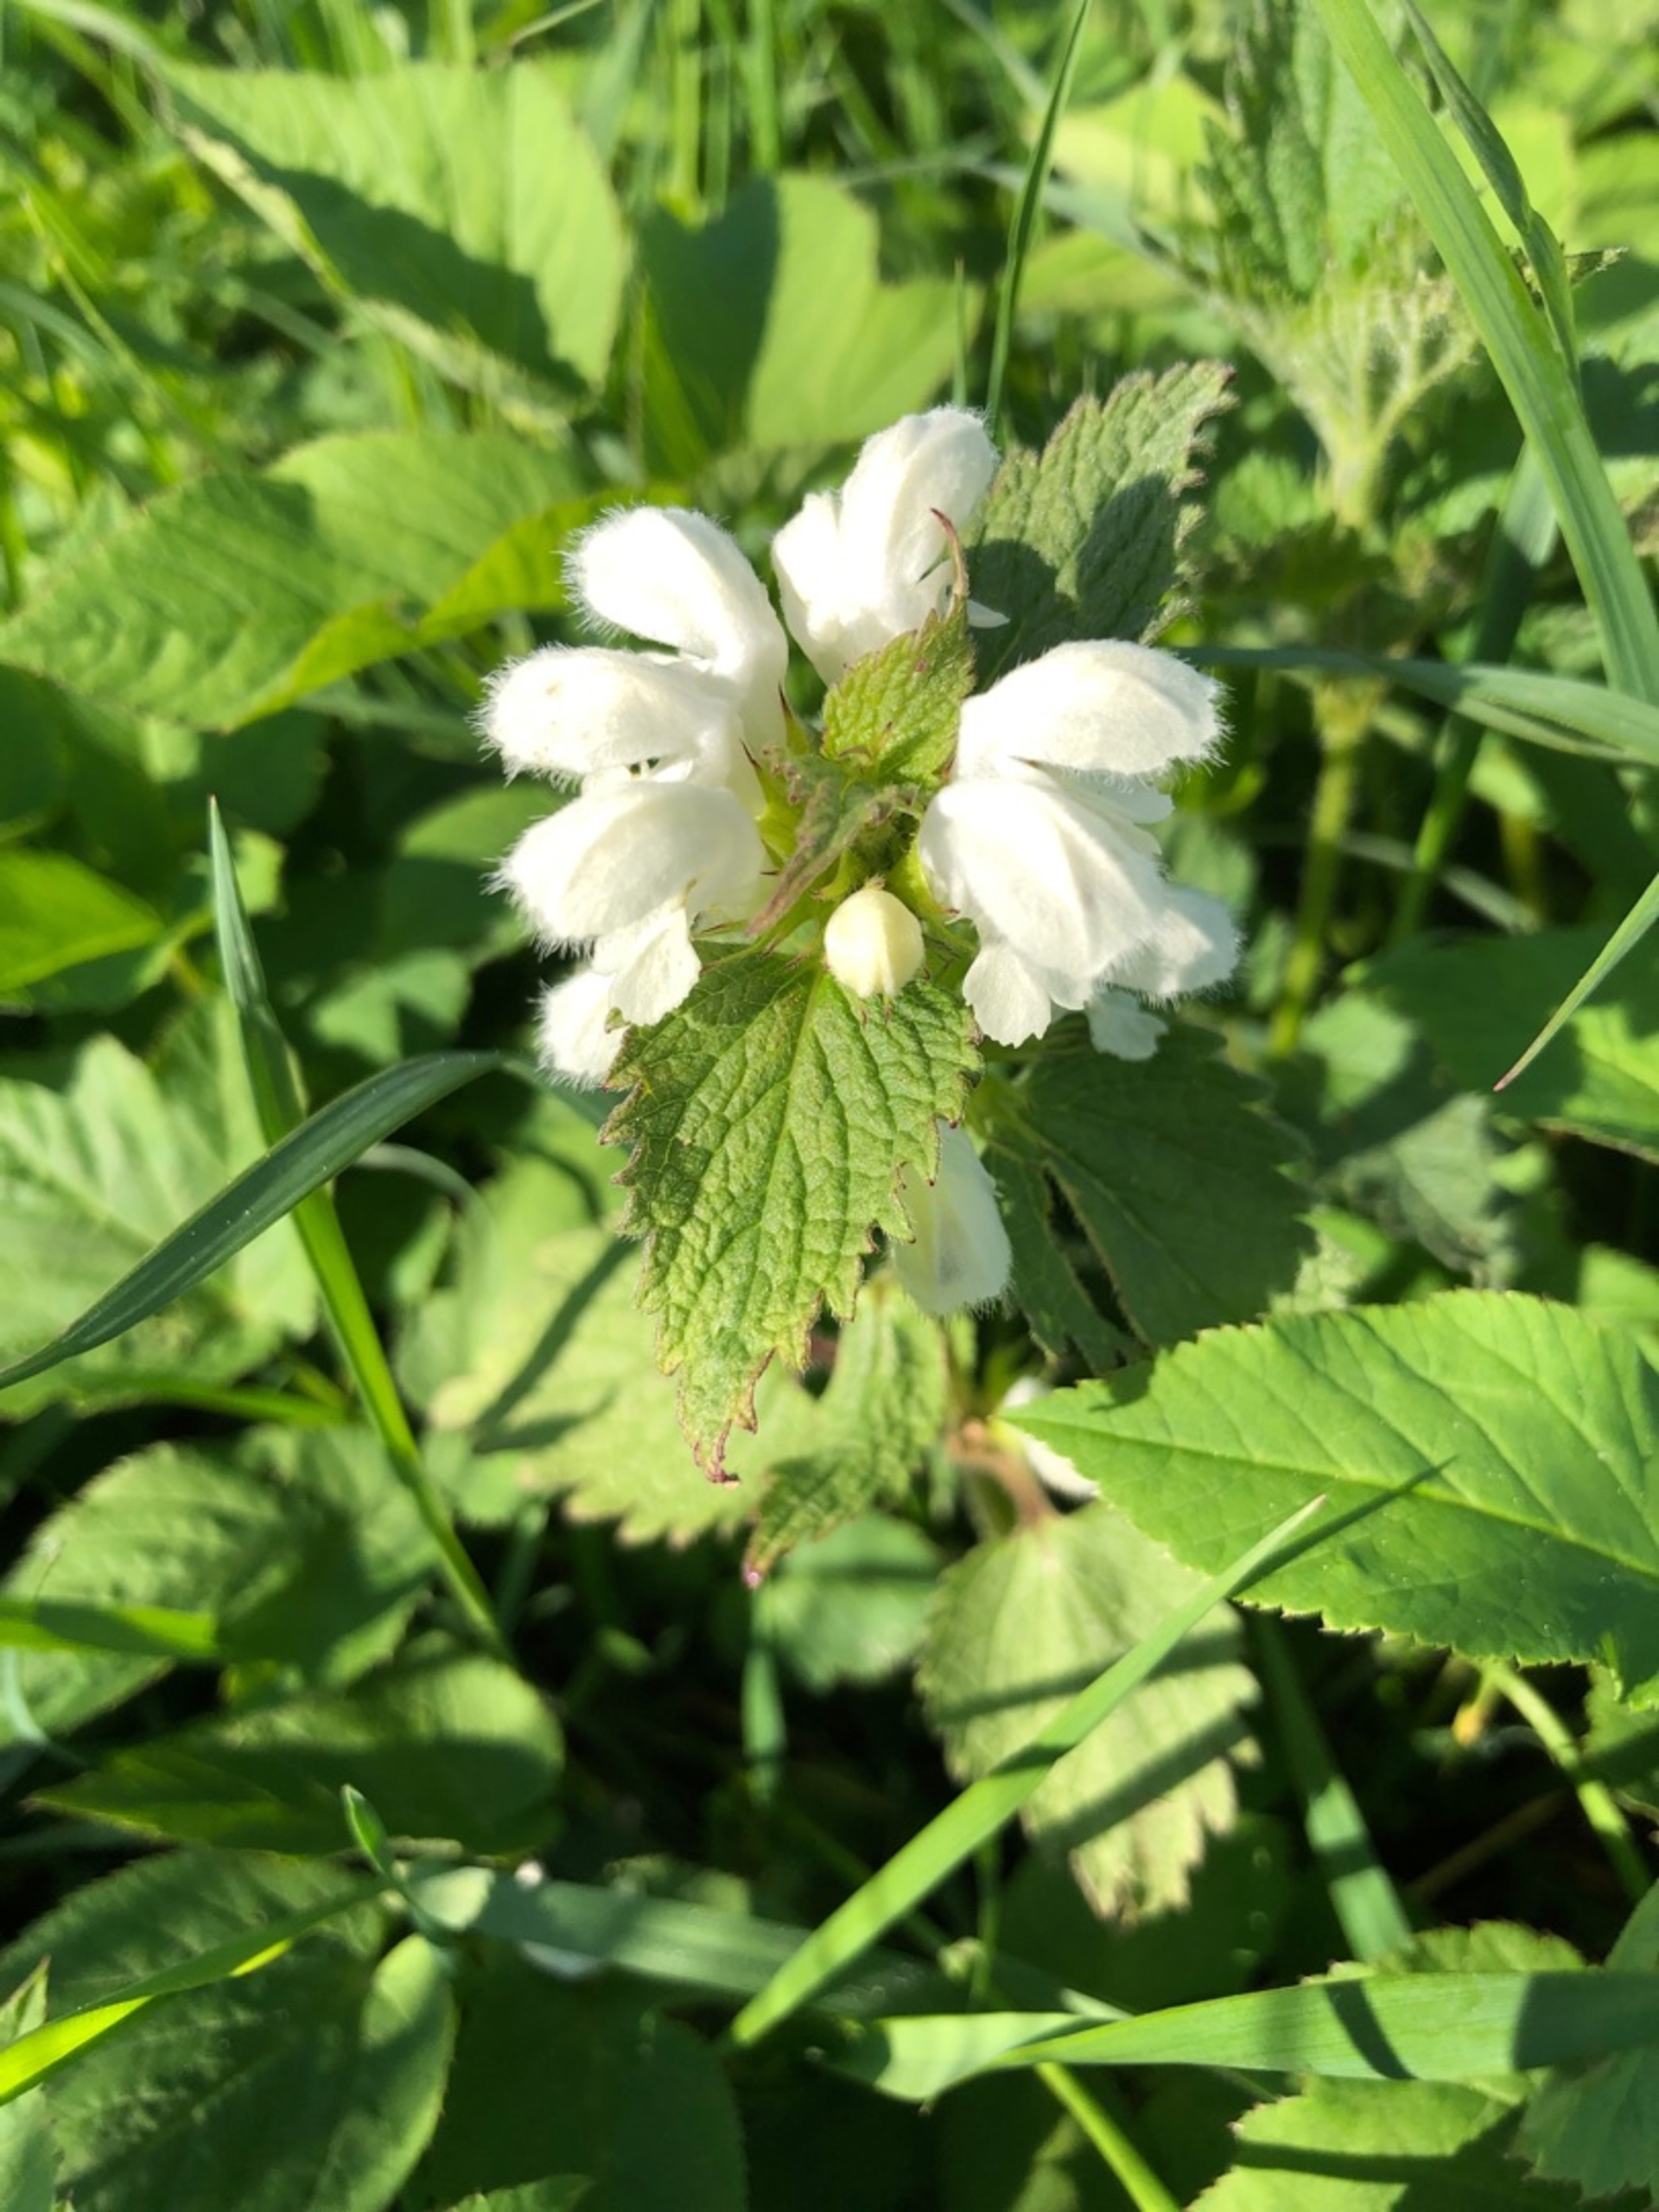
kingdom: Plantae
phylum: Tracheophyta
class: Magnoliopsida
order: Lamiales
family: Lamiaceae
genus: Lamium
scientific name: Lamium album
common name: Døvnælde
